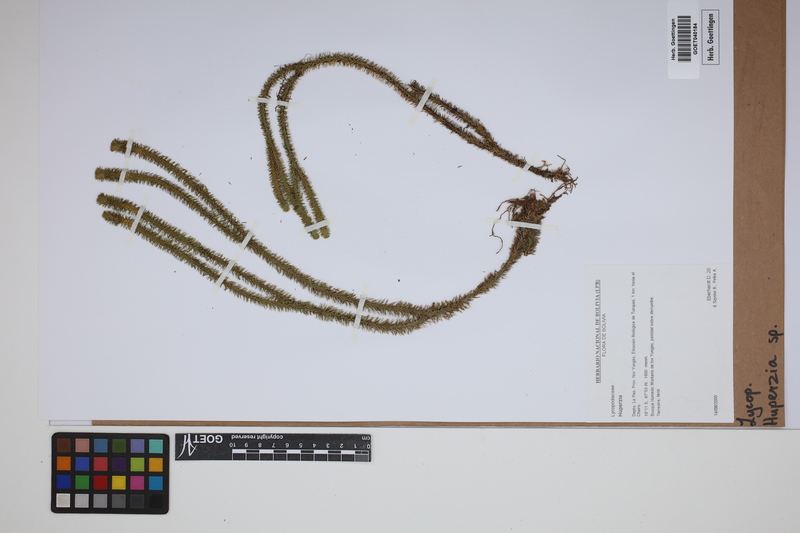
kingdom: Plantae
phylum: Tracheophyta
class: Lycopodiopsida
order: Lycopodiales
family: Lycopodiaceae
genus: Phlegmariurus
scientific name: Phlegmariurus
